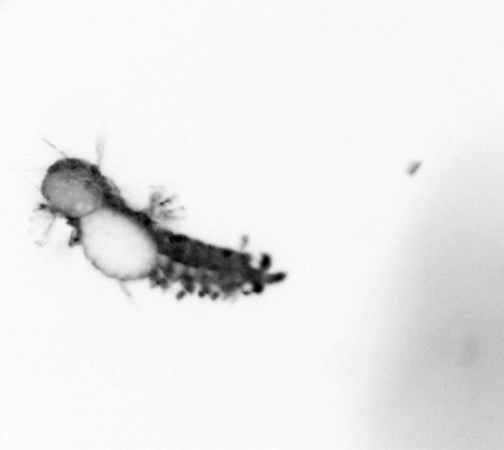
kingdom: Animalia
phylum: Annelida
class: Polychaeta
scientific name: Polychaeta
